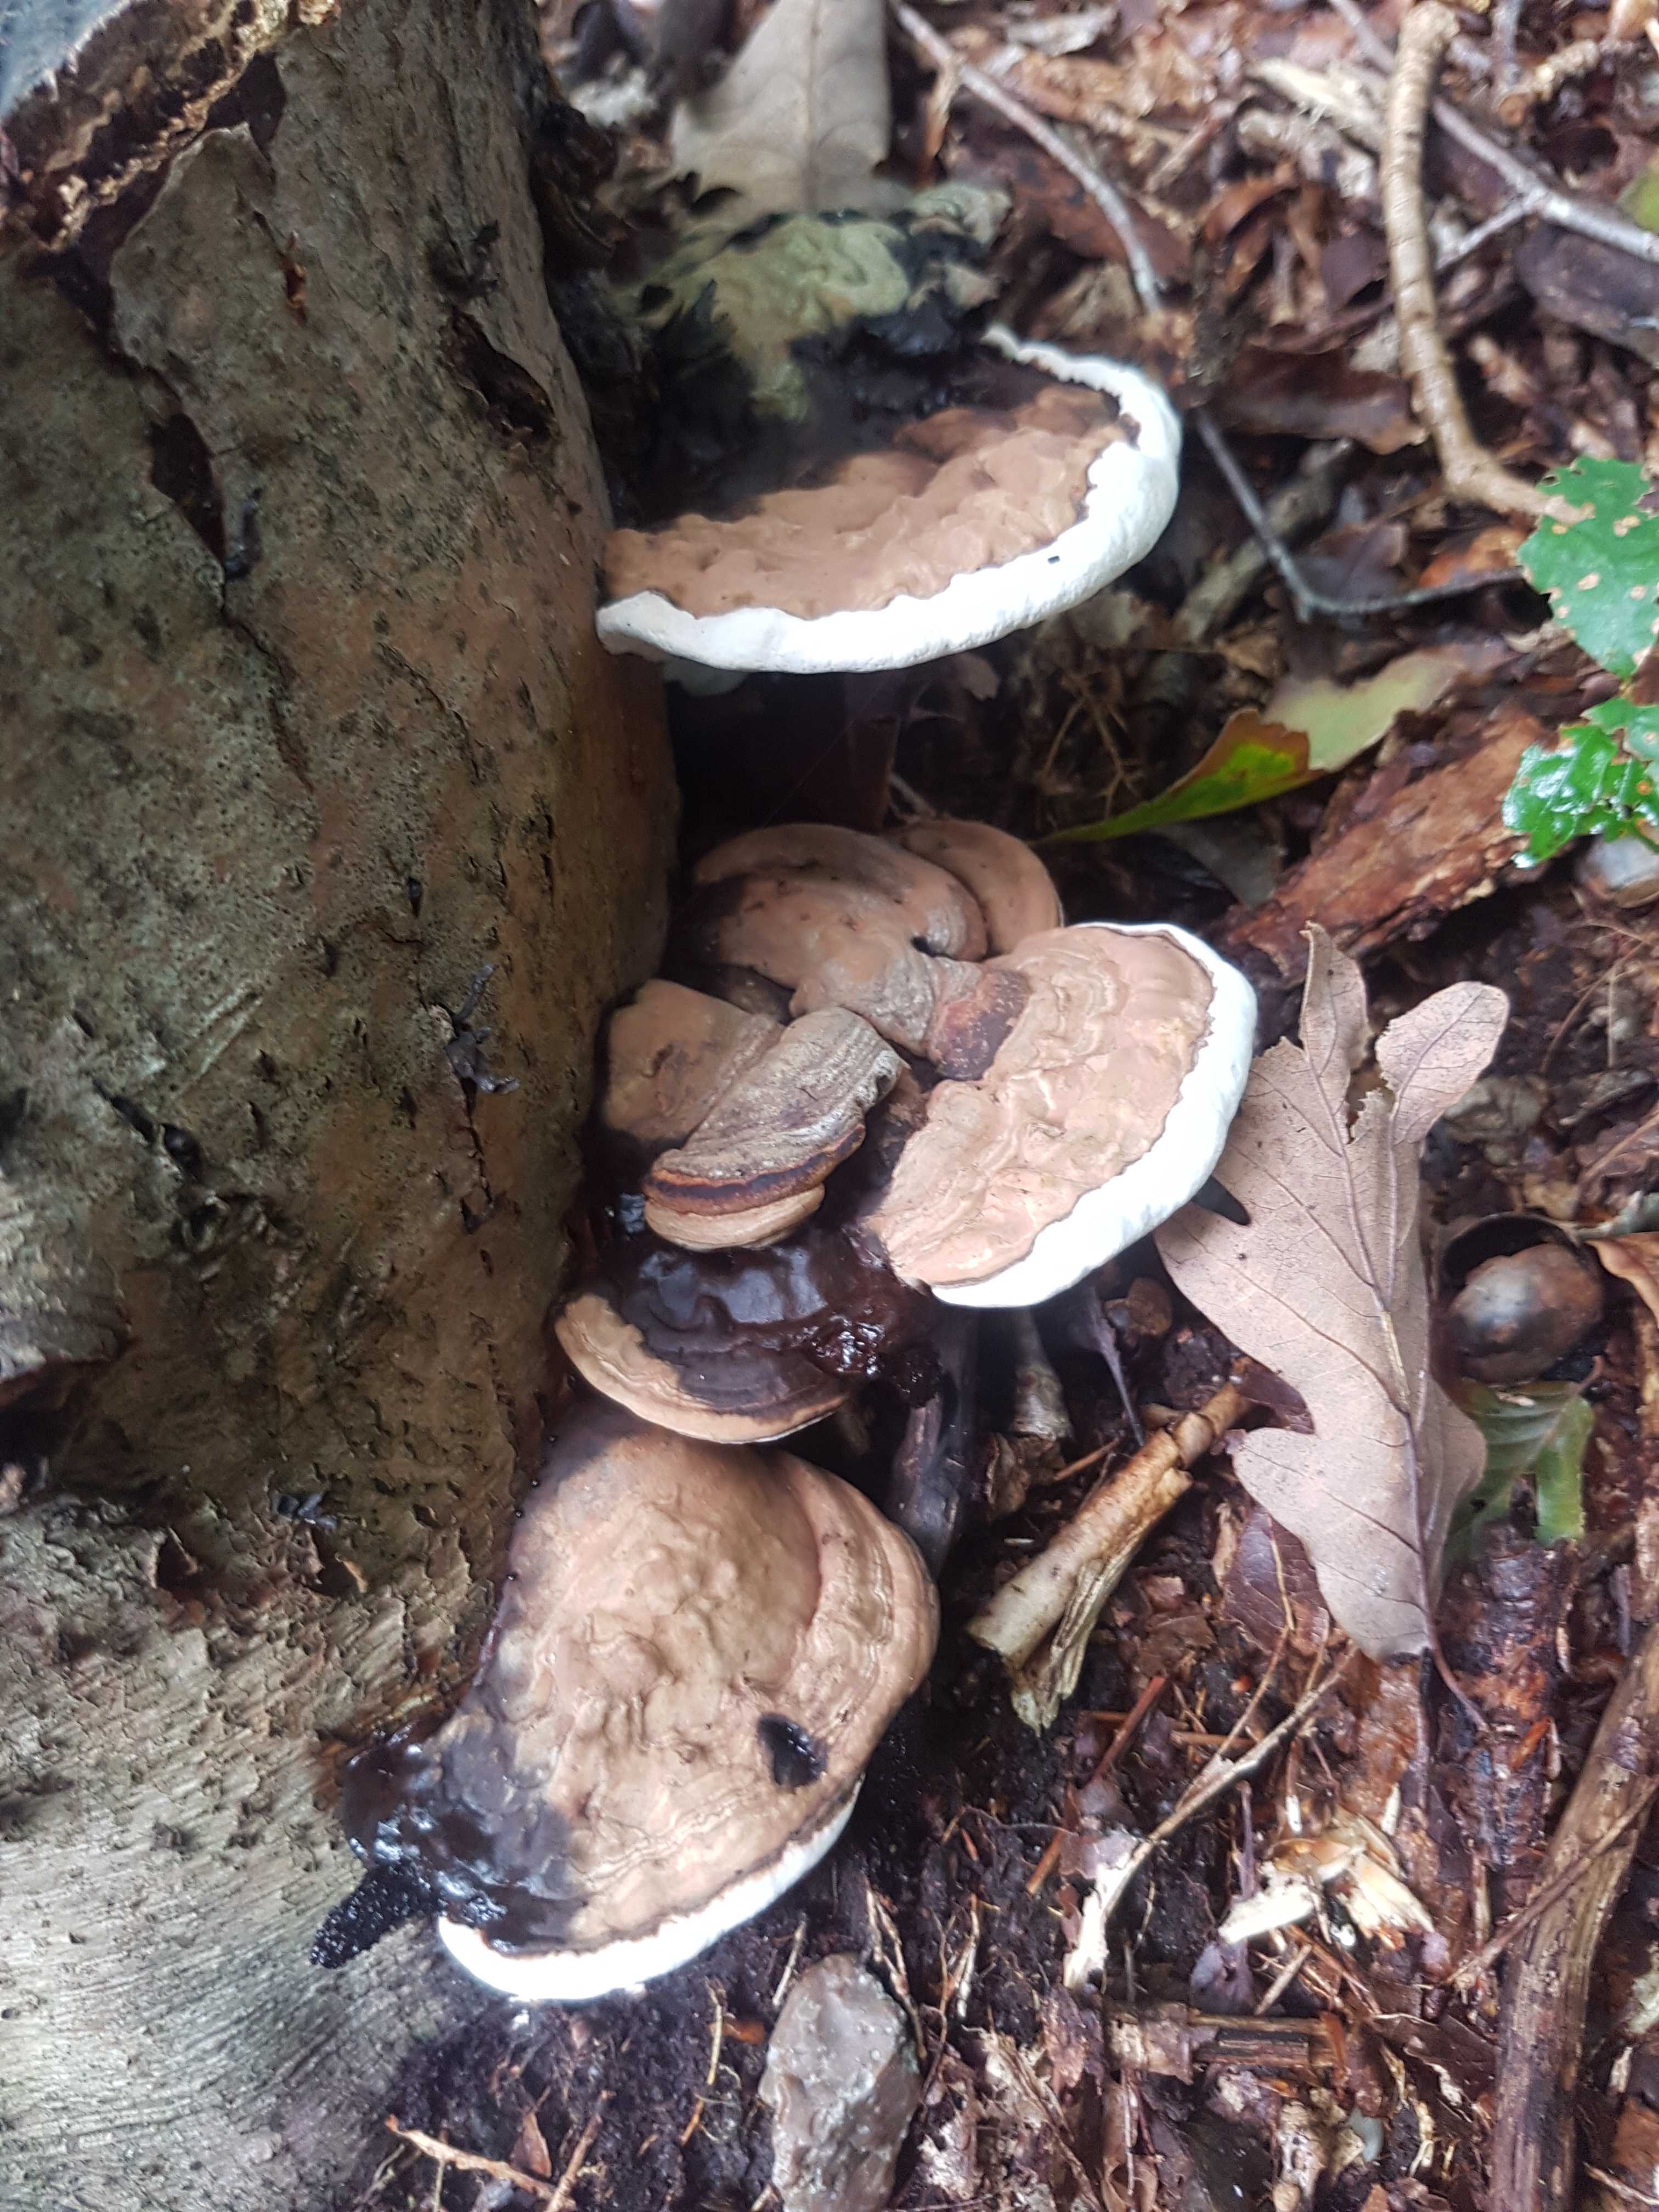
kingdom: Fungi
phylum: Basidiomycota
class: Agaricomycetes
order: Polyporales
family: Polyporaceae
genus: Ganoderma
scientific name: Ganoderma applanatum
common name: flad lakporesvamp
